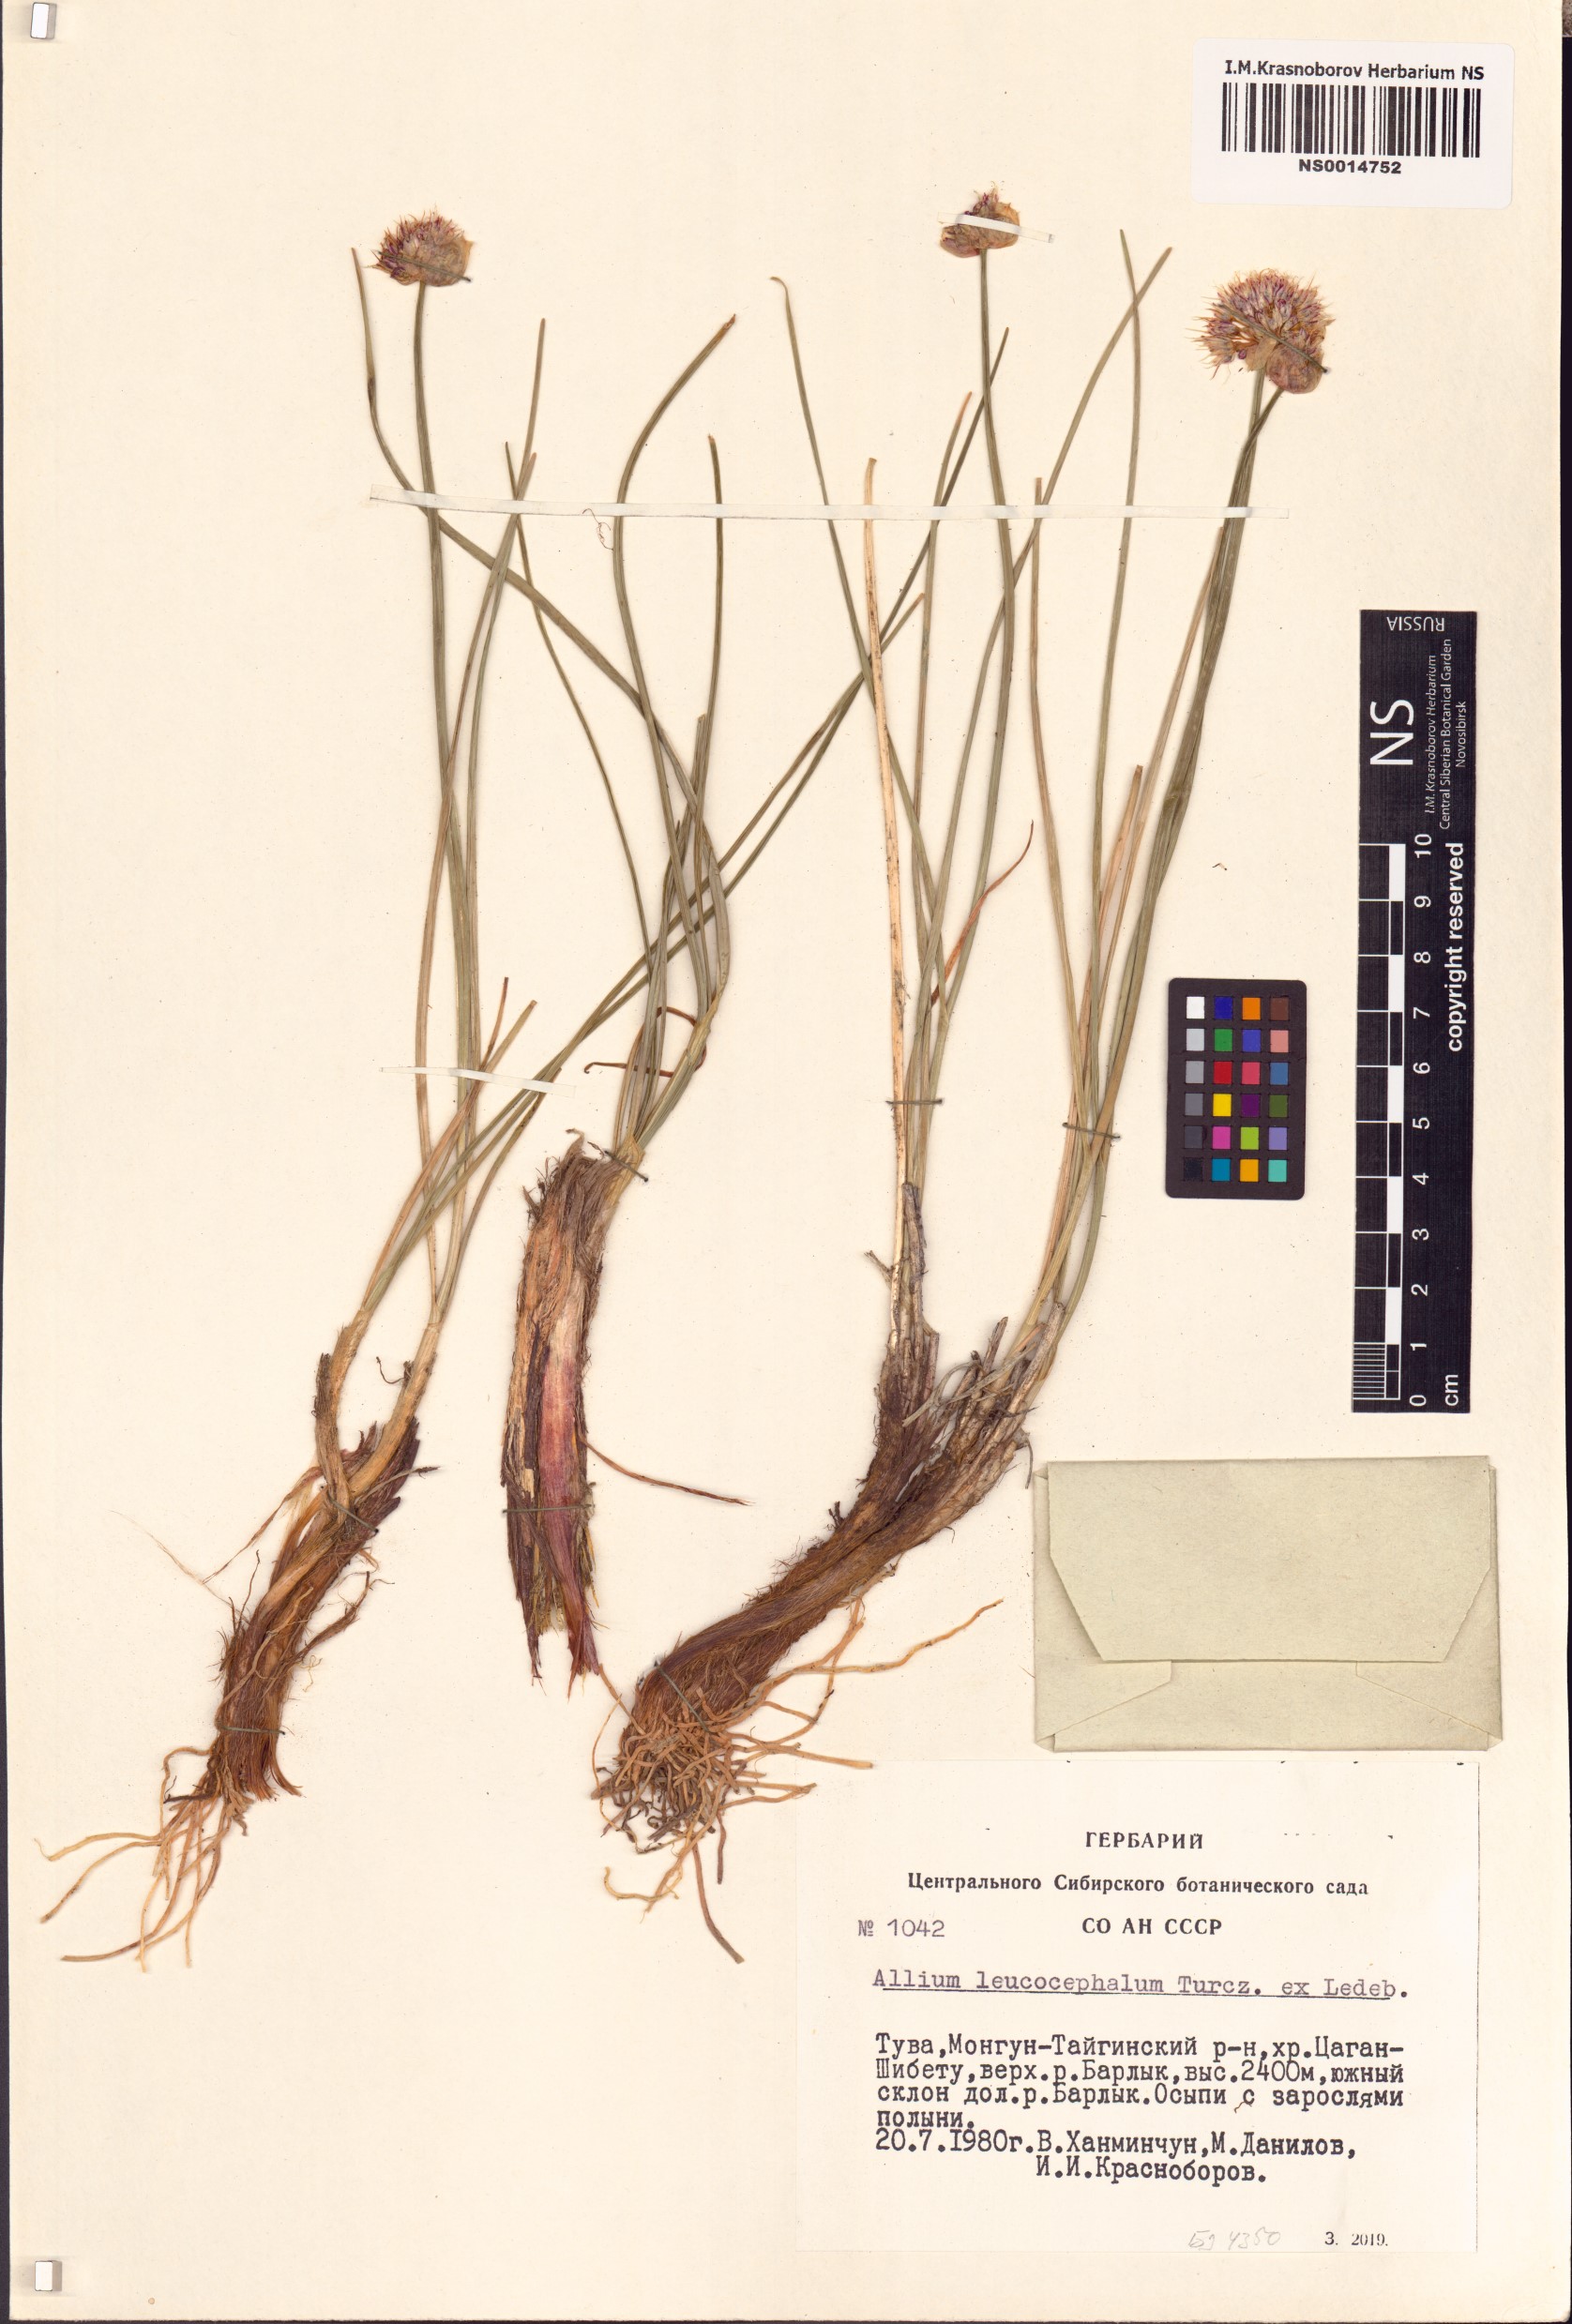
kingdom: Plantae
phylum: Tracheophyta
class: Liliopsida
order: Asparagales
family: Amaryllidaceae
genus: Allium
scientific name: Allium leucocephalum
